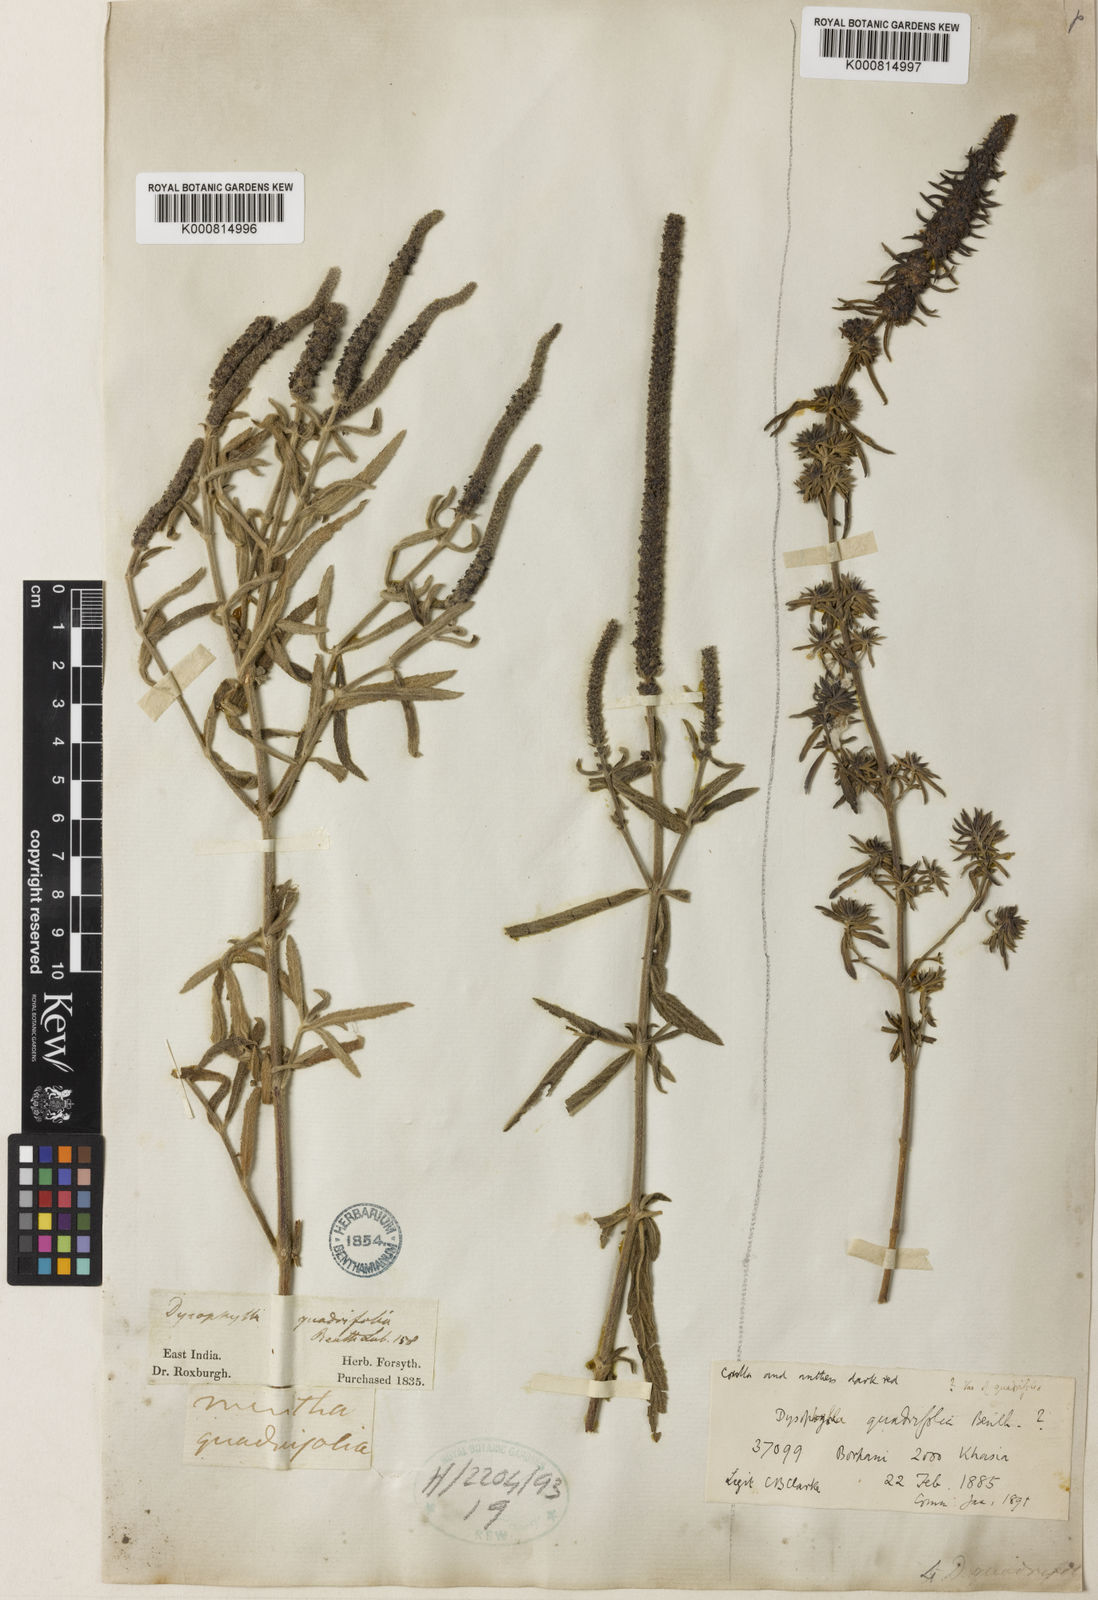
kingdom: Plantae
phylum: Tracheophyta
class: Magnoliopsida
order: Lamiales
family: Lamiaceae
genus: Pogostemon
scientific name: Pogostemon quadrifolius
